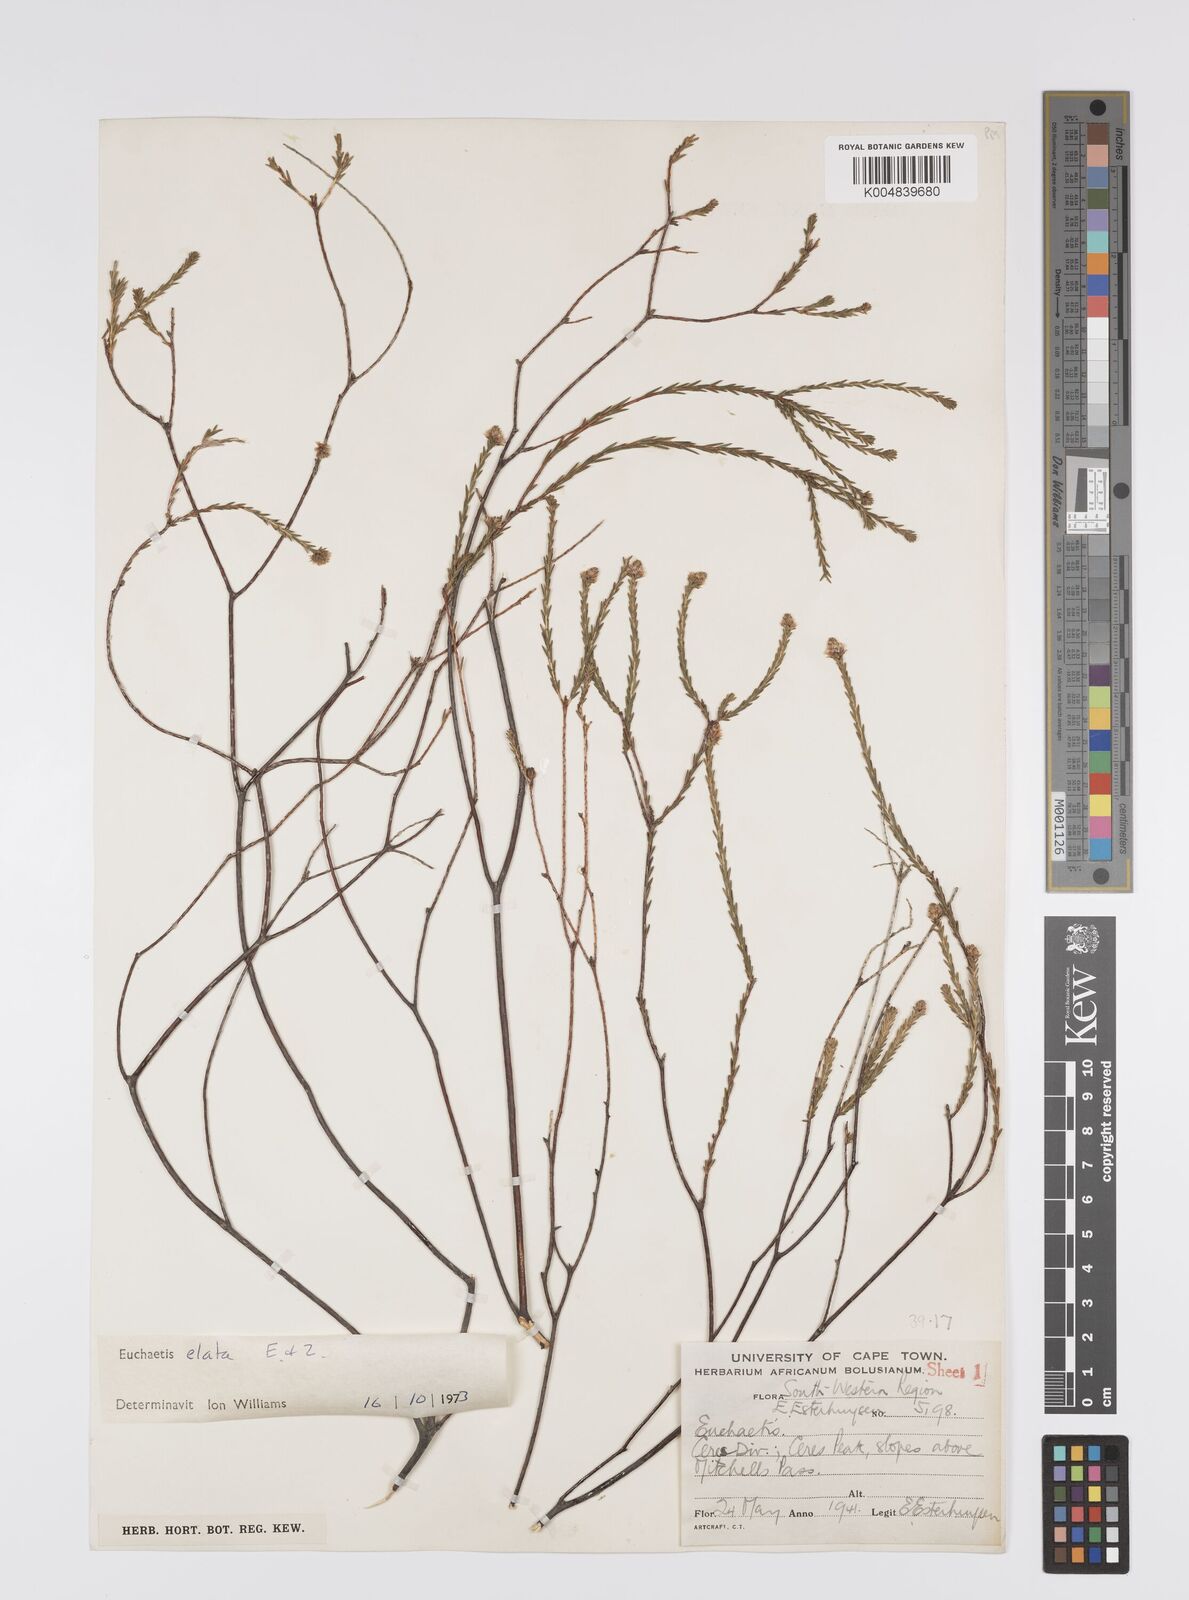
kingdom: Plantae
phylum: Tracheophyta
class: Magnoliopsida
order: Sapindales
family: Rutaceae
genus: Euchaetis
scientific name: Euchaetis elata
